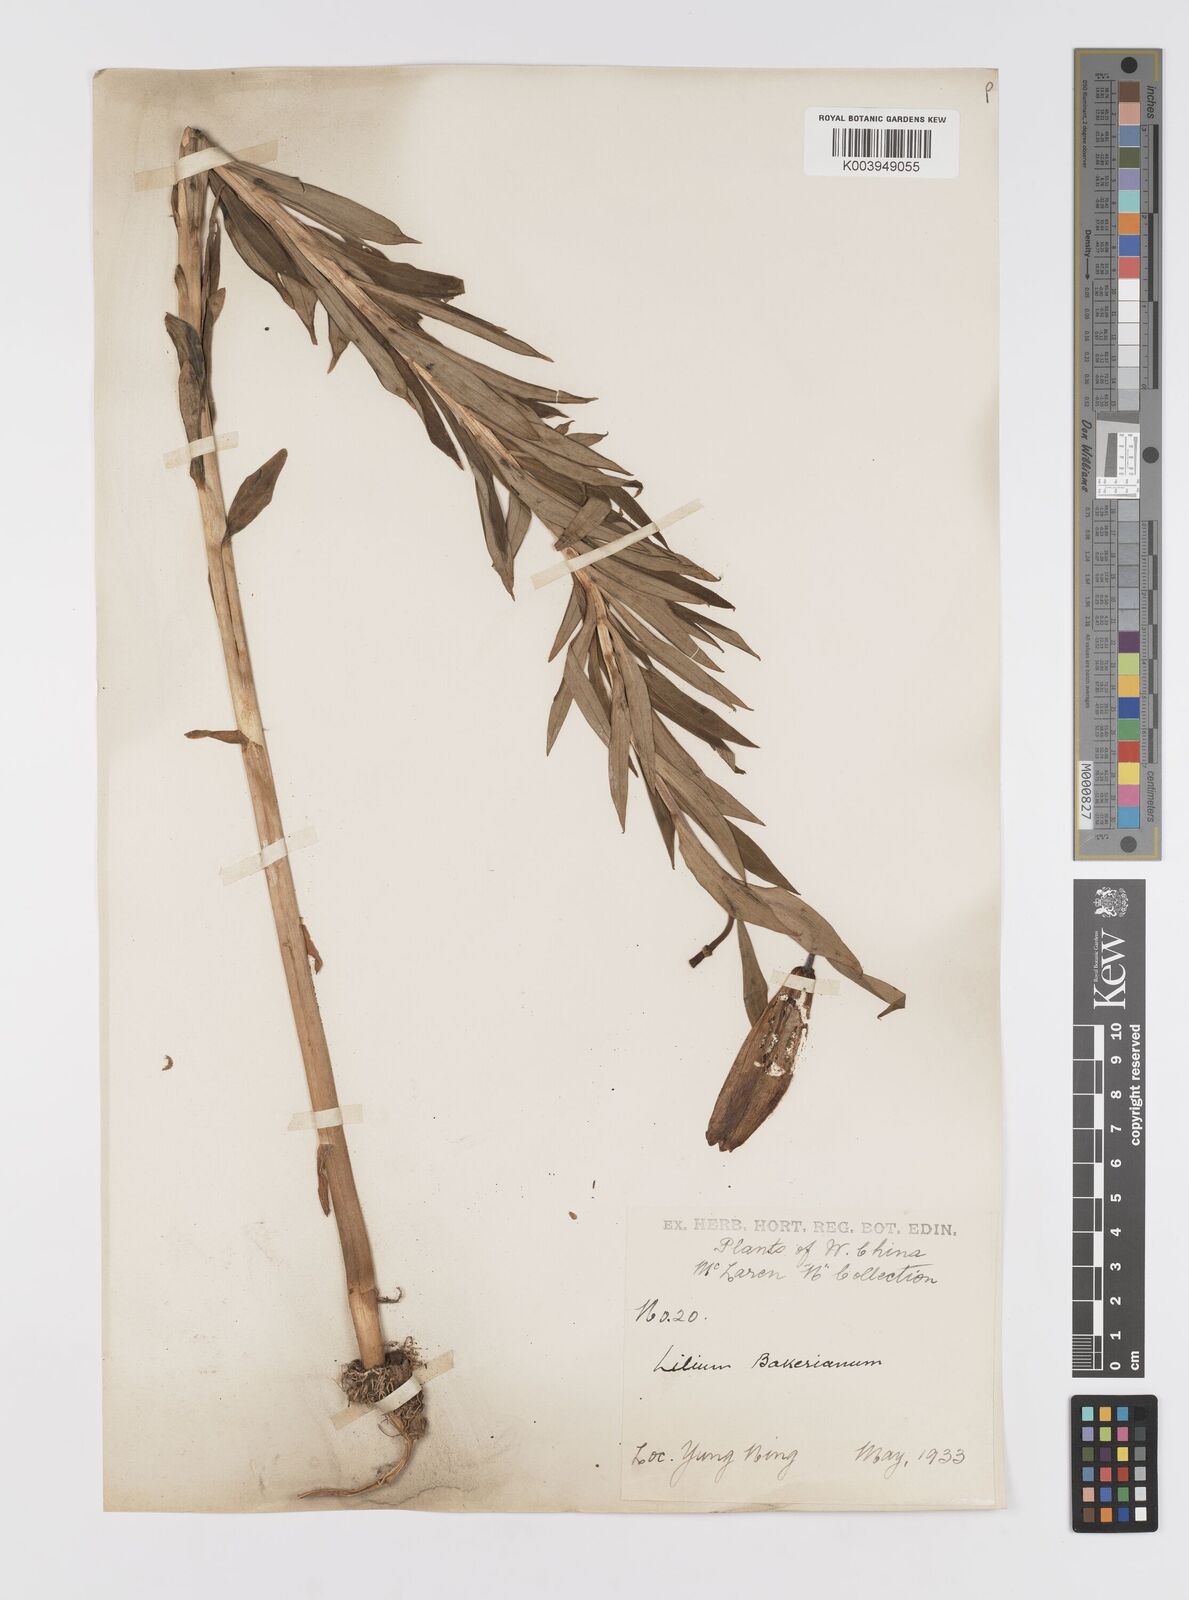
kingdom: Plantae
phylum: Tracheophyta
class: Liliopsida
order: Liliales
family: Liliaceae
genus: Lilium
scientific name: Lilium
